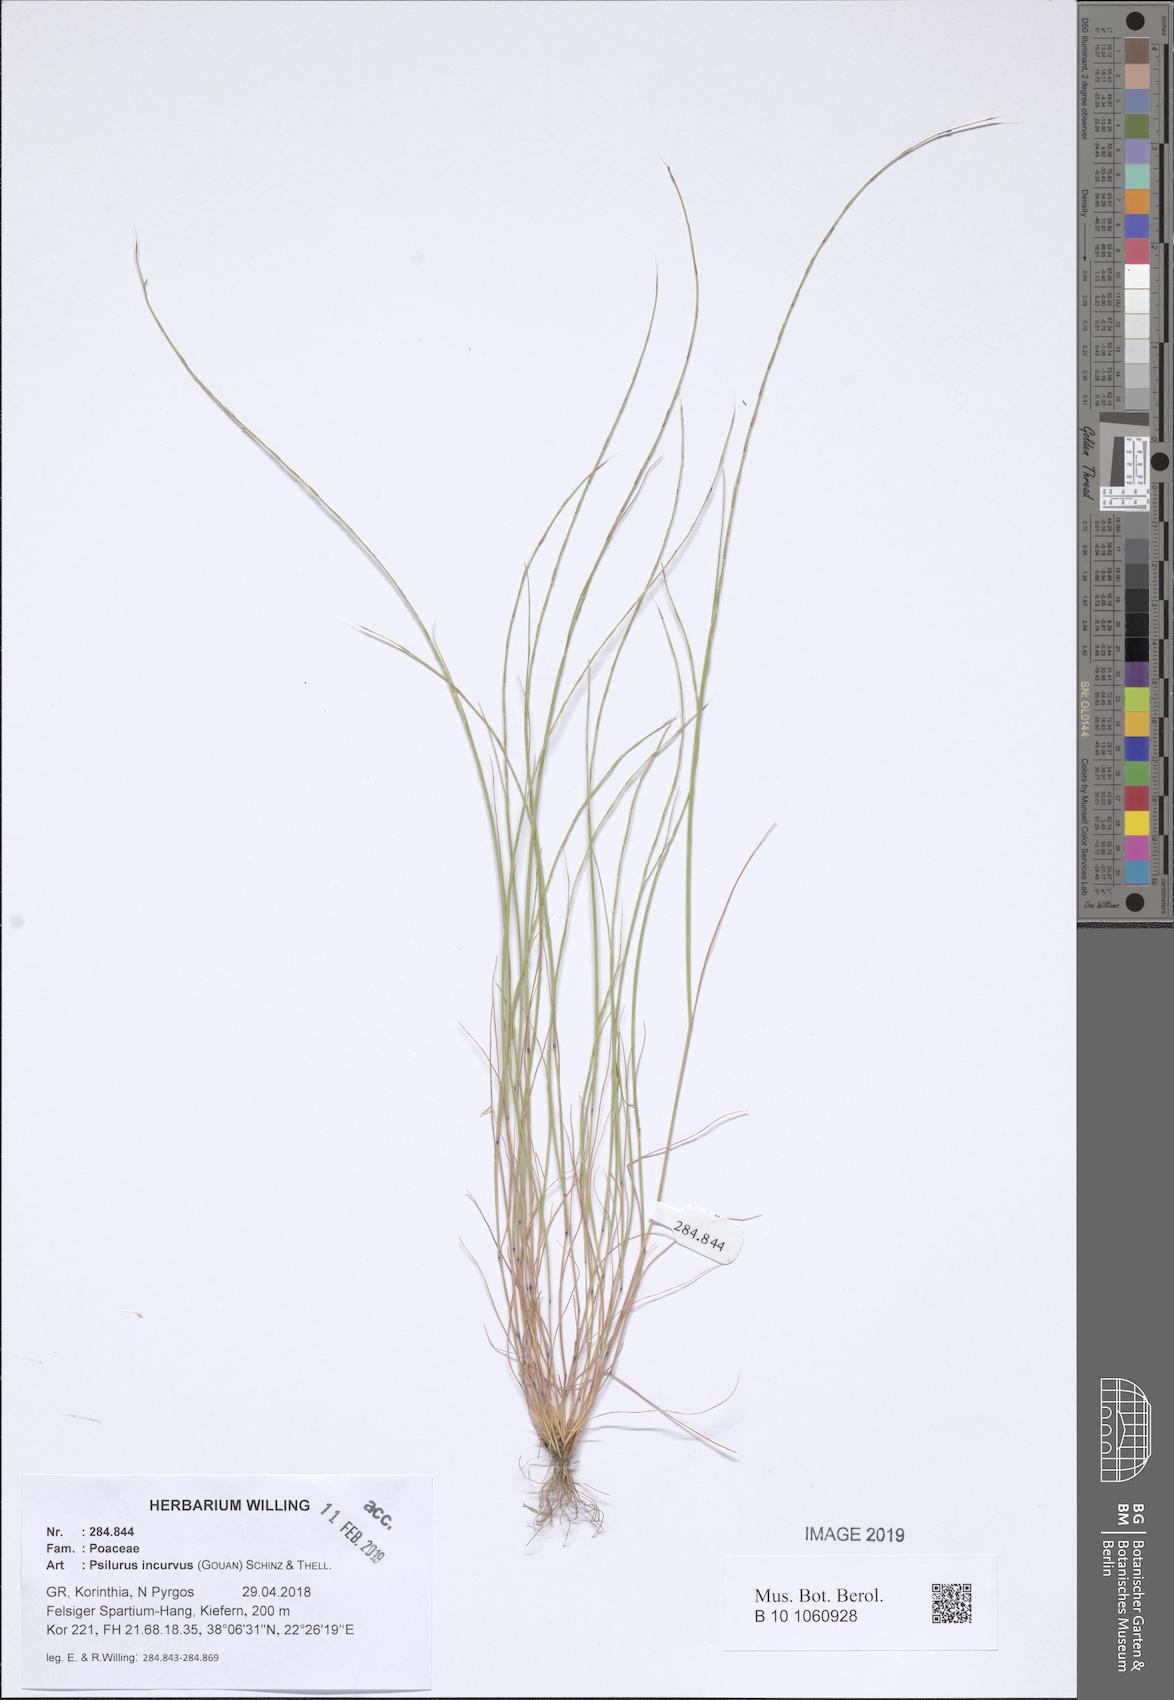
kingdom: Plantae
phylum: Tracheophyta
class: Liliopsida
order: Poales
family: Poaceae
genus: Festuca
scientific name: Festuca incurva
